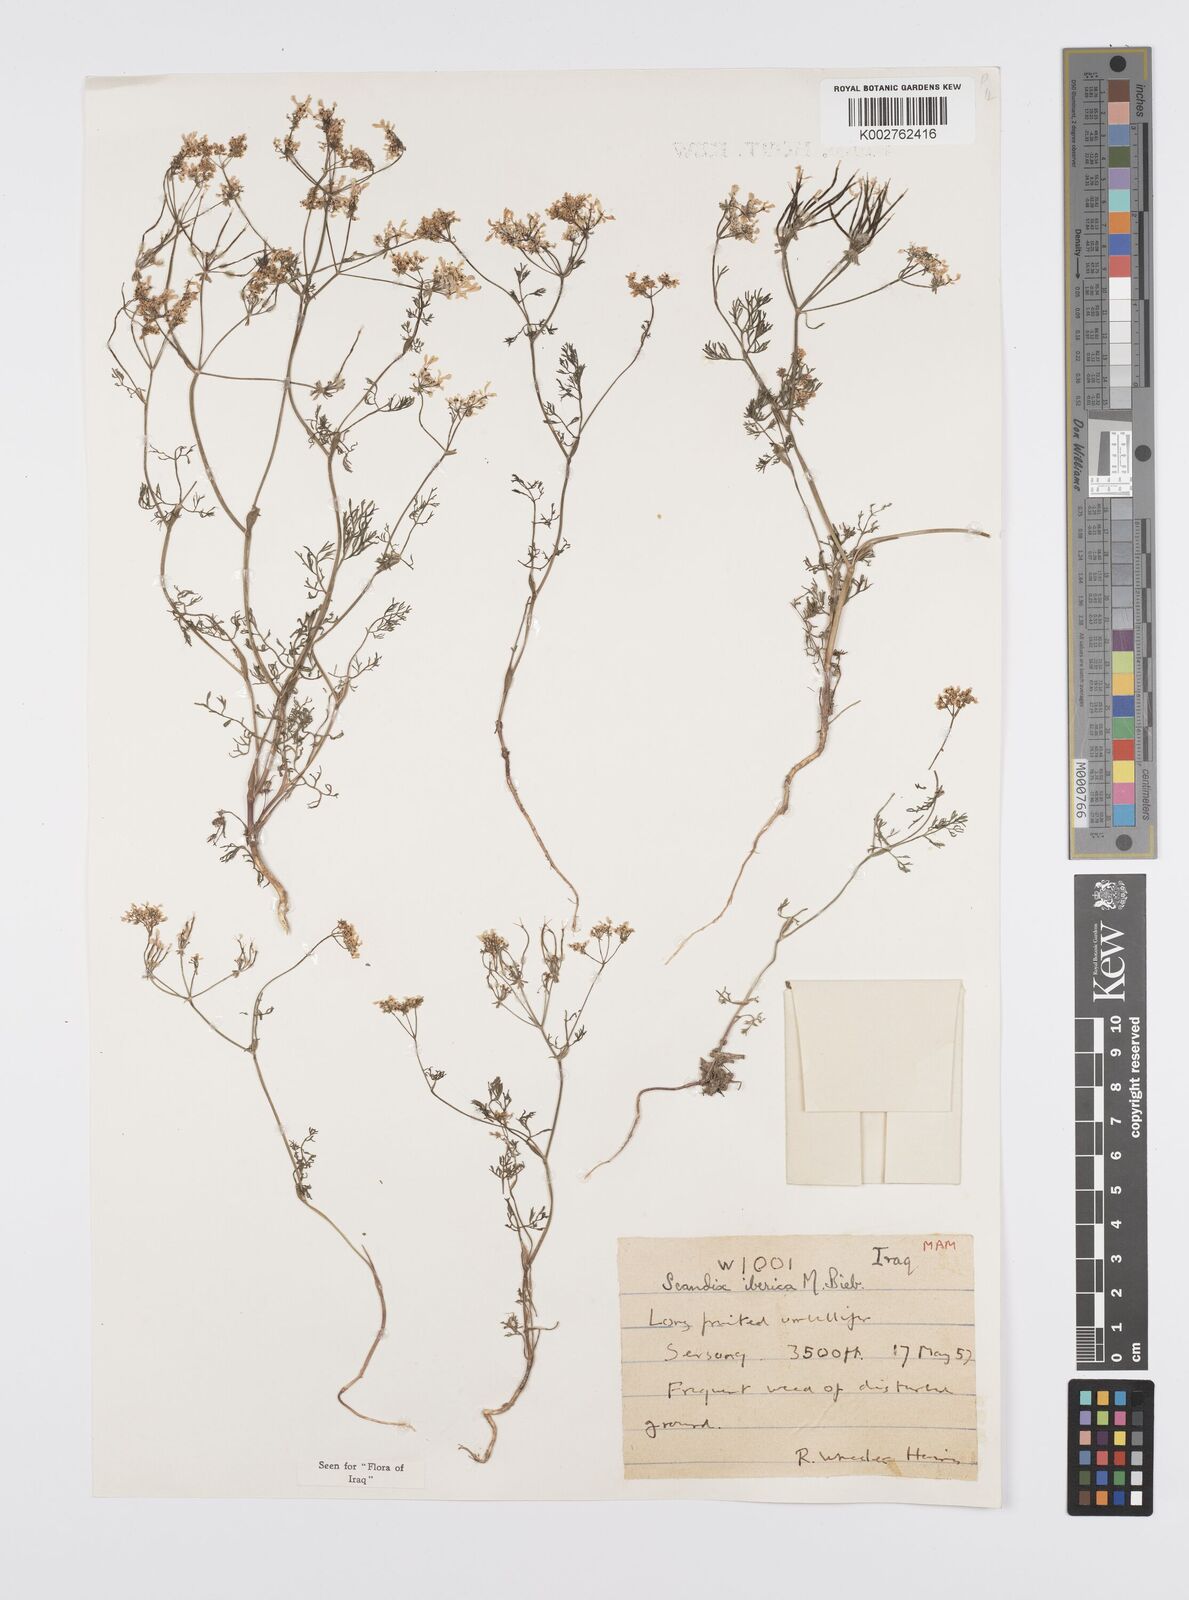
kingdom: Plantae
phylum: Tracheophyta
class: Magnoliopsida
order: Apiales
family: Apiaceae
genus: Scandix
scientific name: Scandix iberica
